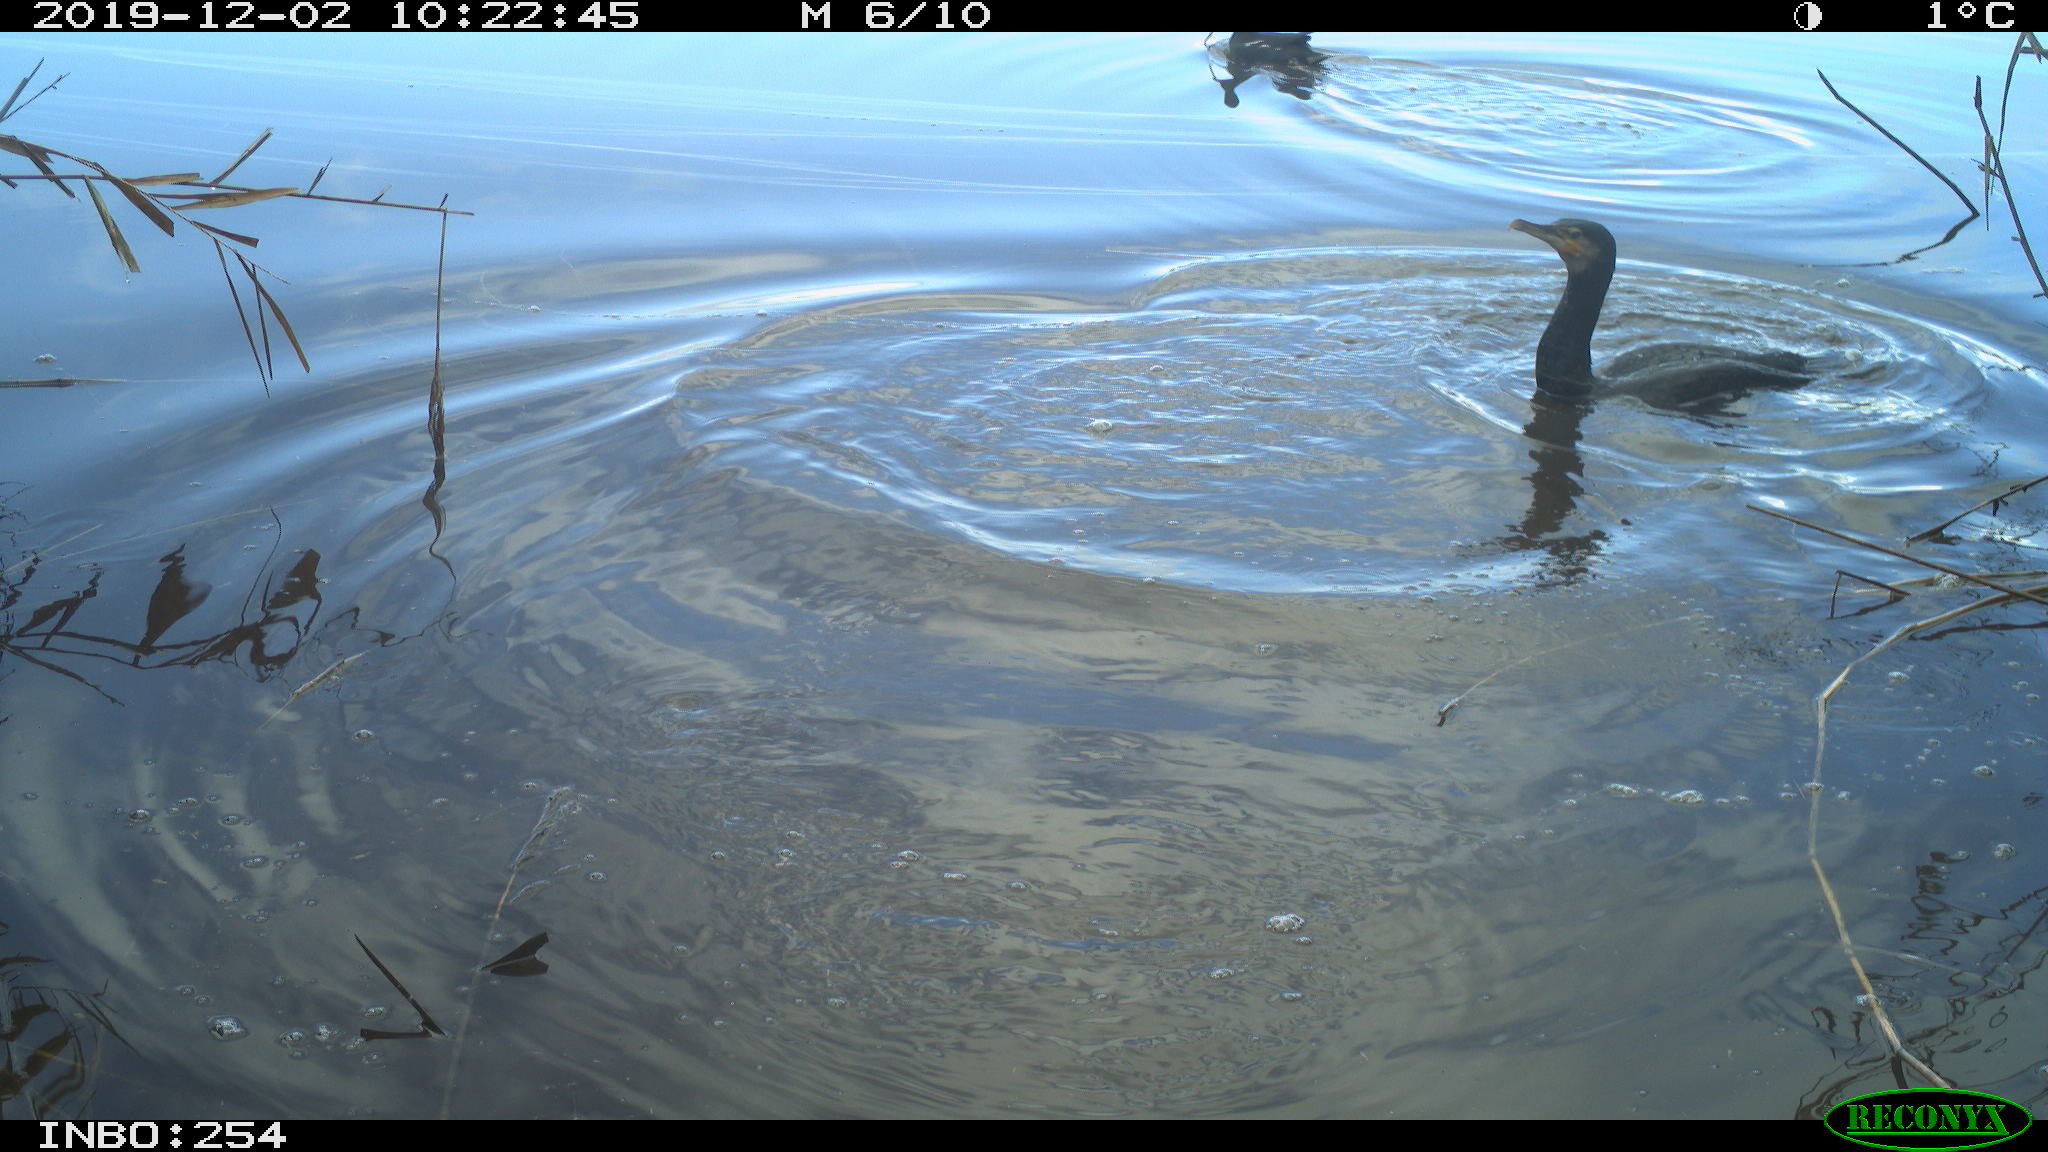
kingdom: Animalia
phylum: Chordata
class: Aves
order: Gruiformes
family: Rallidae
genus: Gallinula
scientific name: Gallinula chloropus
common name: Common moorhen
